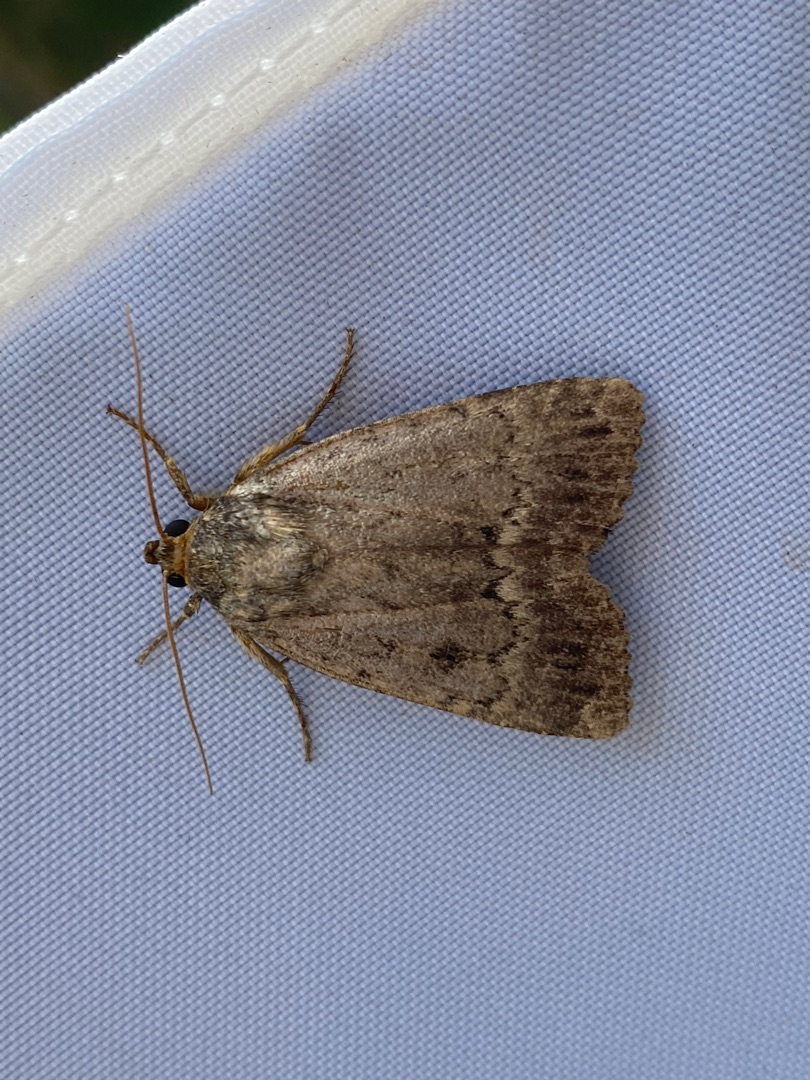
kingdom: Animalia
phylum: Arthropoda
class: Insecta
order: Lepidoptera
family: Noctuidae
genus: Amphipyra
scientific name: Amphipyra pyramidea
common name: Pyramideugle
